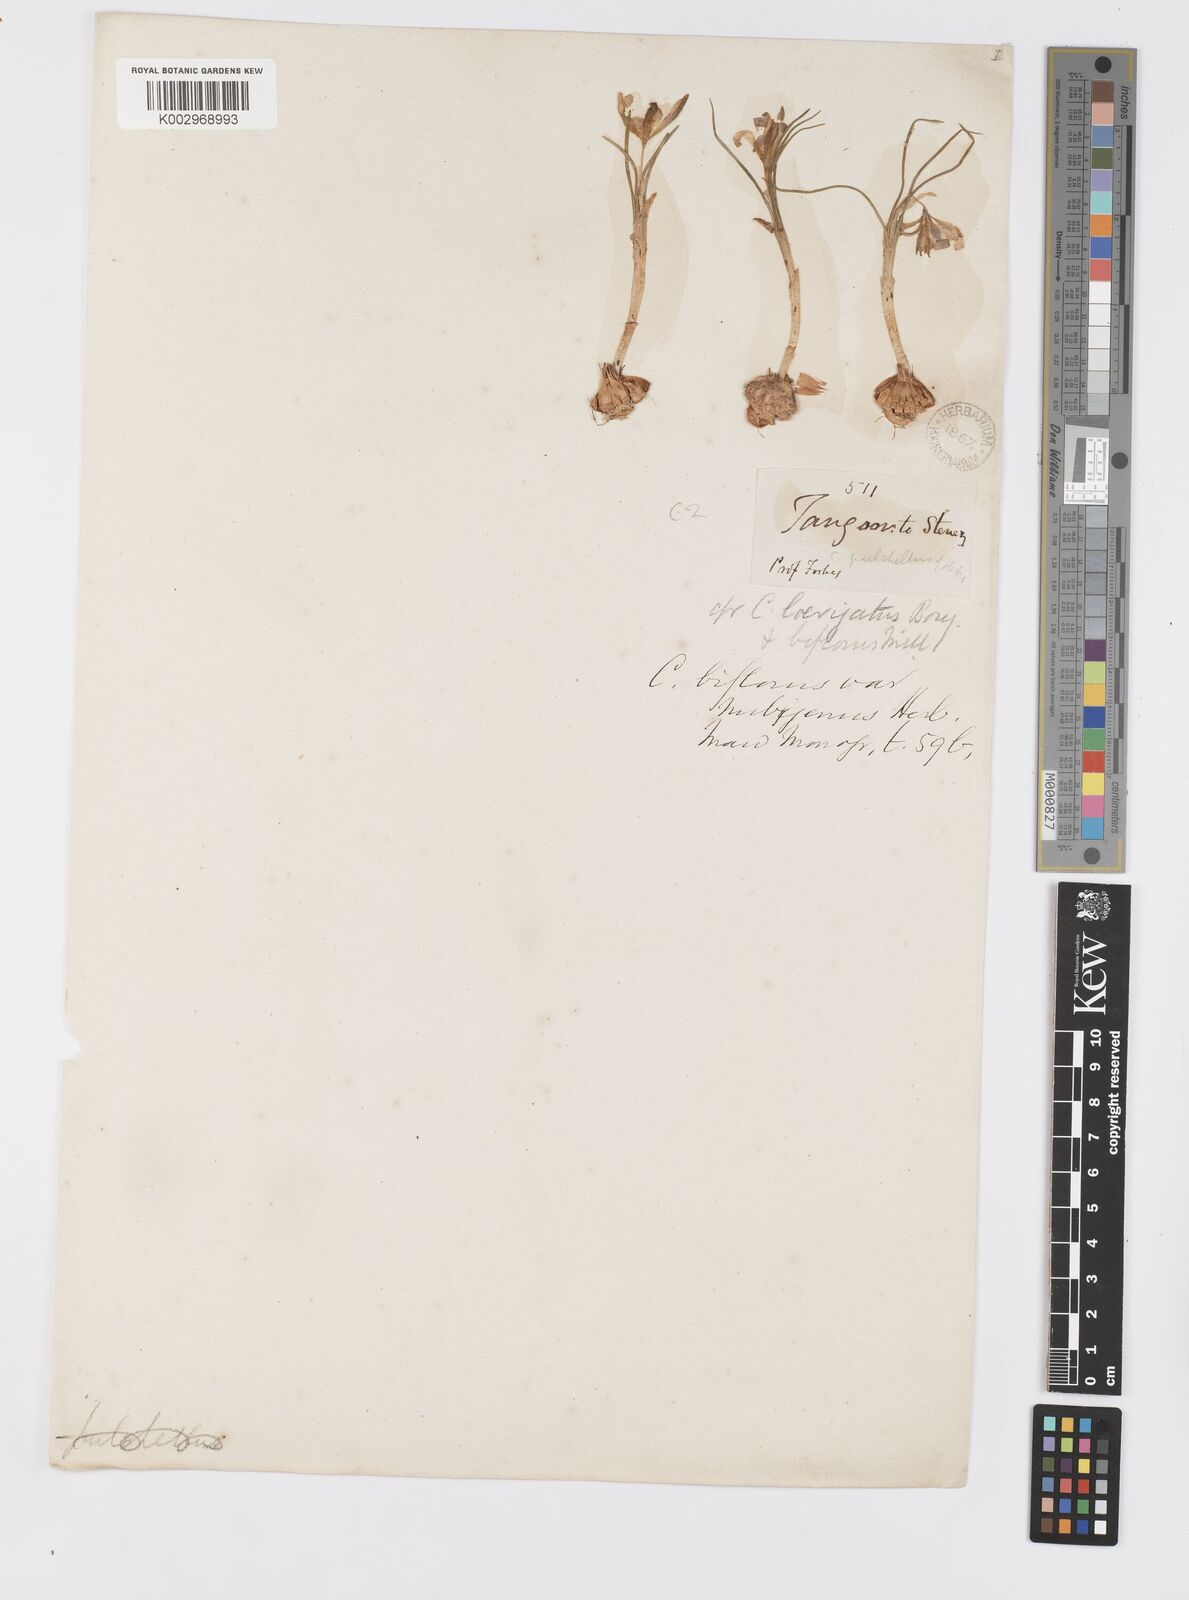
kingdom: Plantae
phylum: Tracheophyta
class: Liliopsida
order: Asparagales
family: Iridaceae
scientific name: Iridaceae
